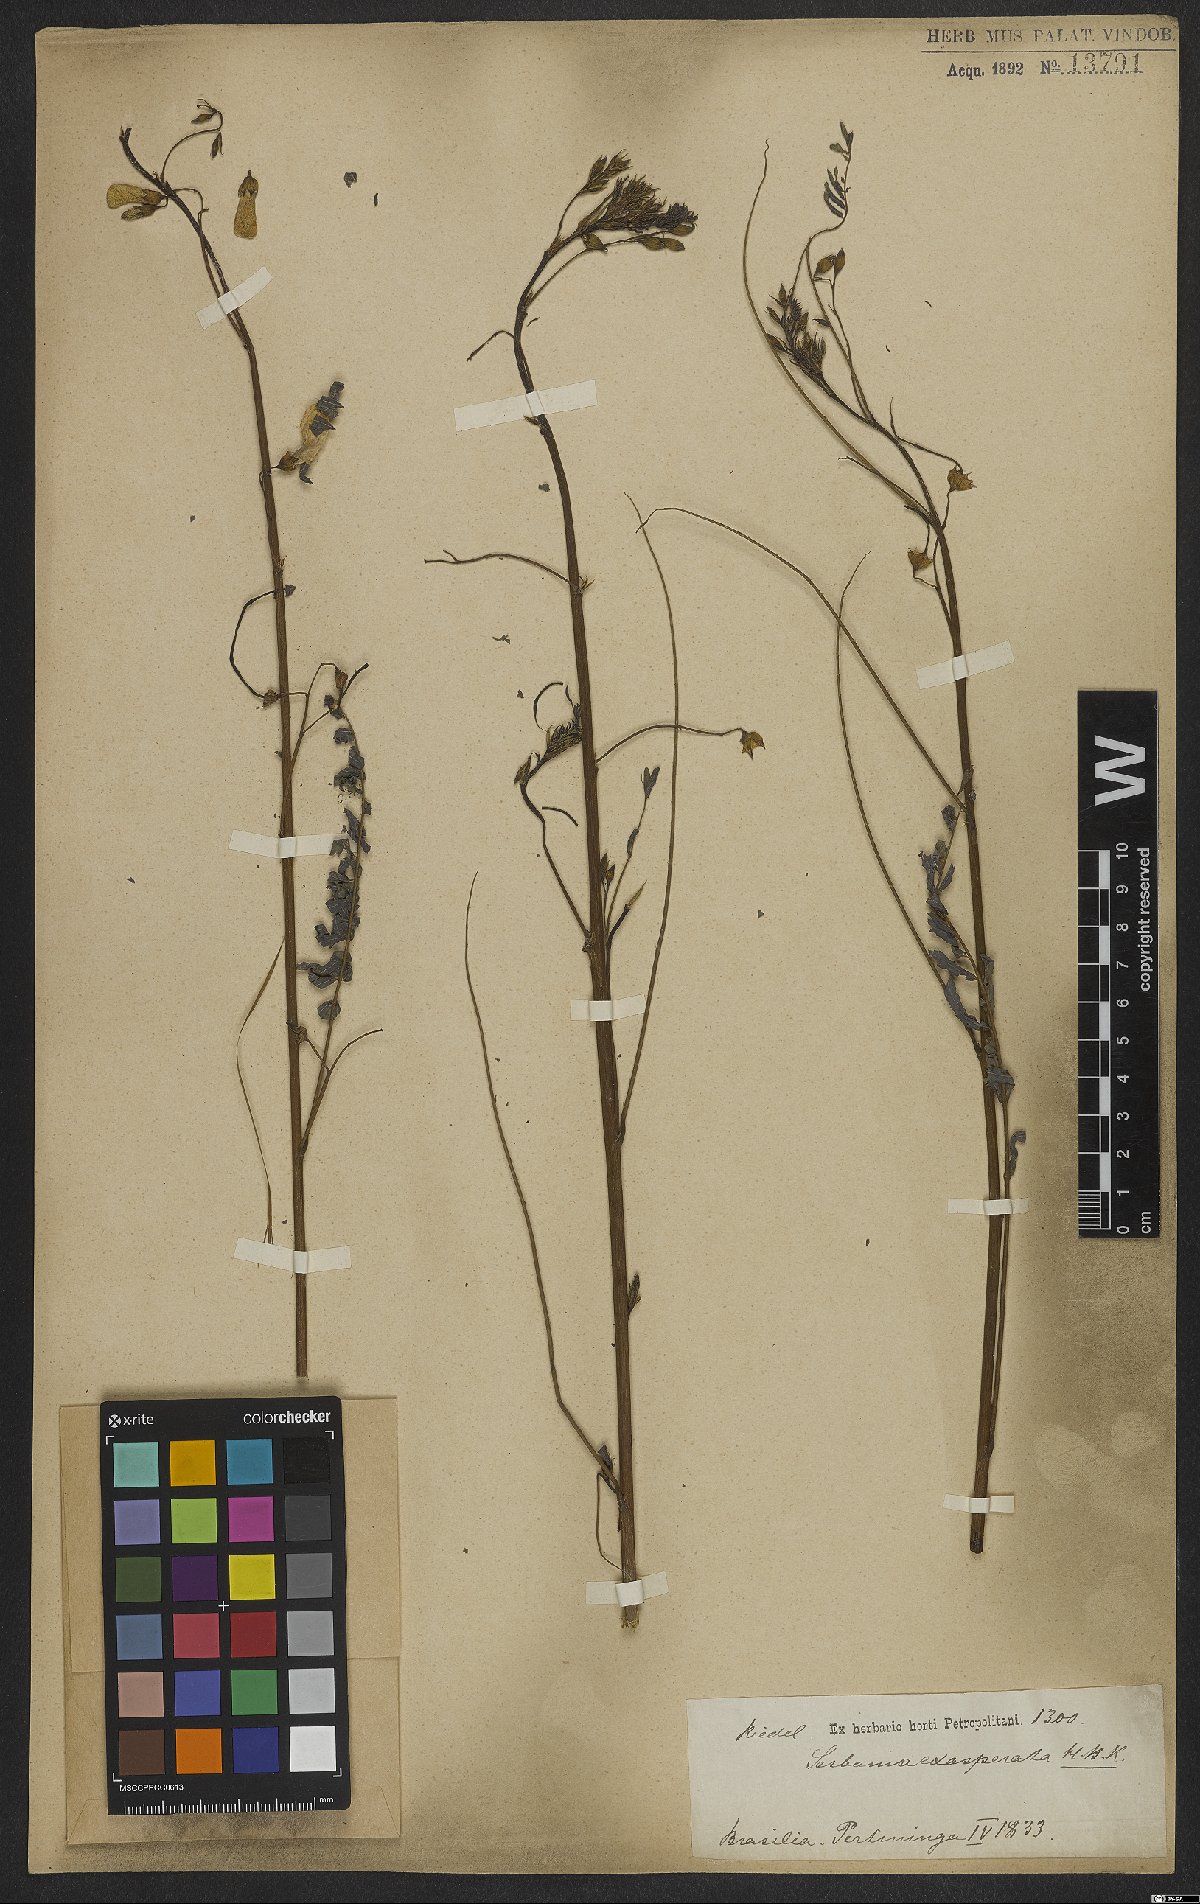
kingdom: Plantae
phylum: Tracheophyta
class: Magnoliopsida
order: Fabales
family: Fabaceae
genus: Sesbania
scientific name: Sesbania exasperata
